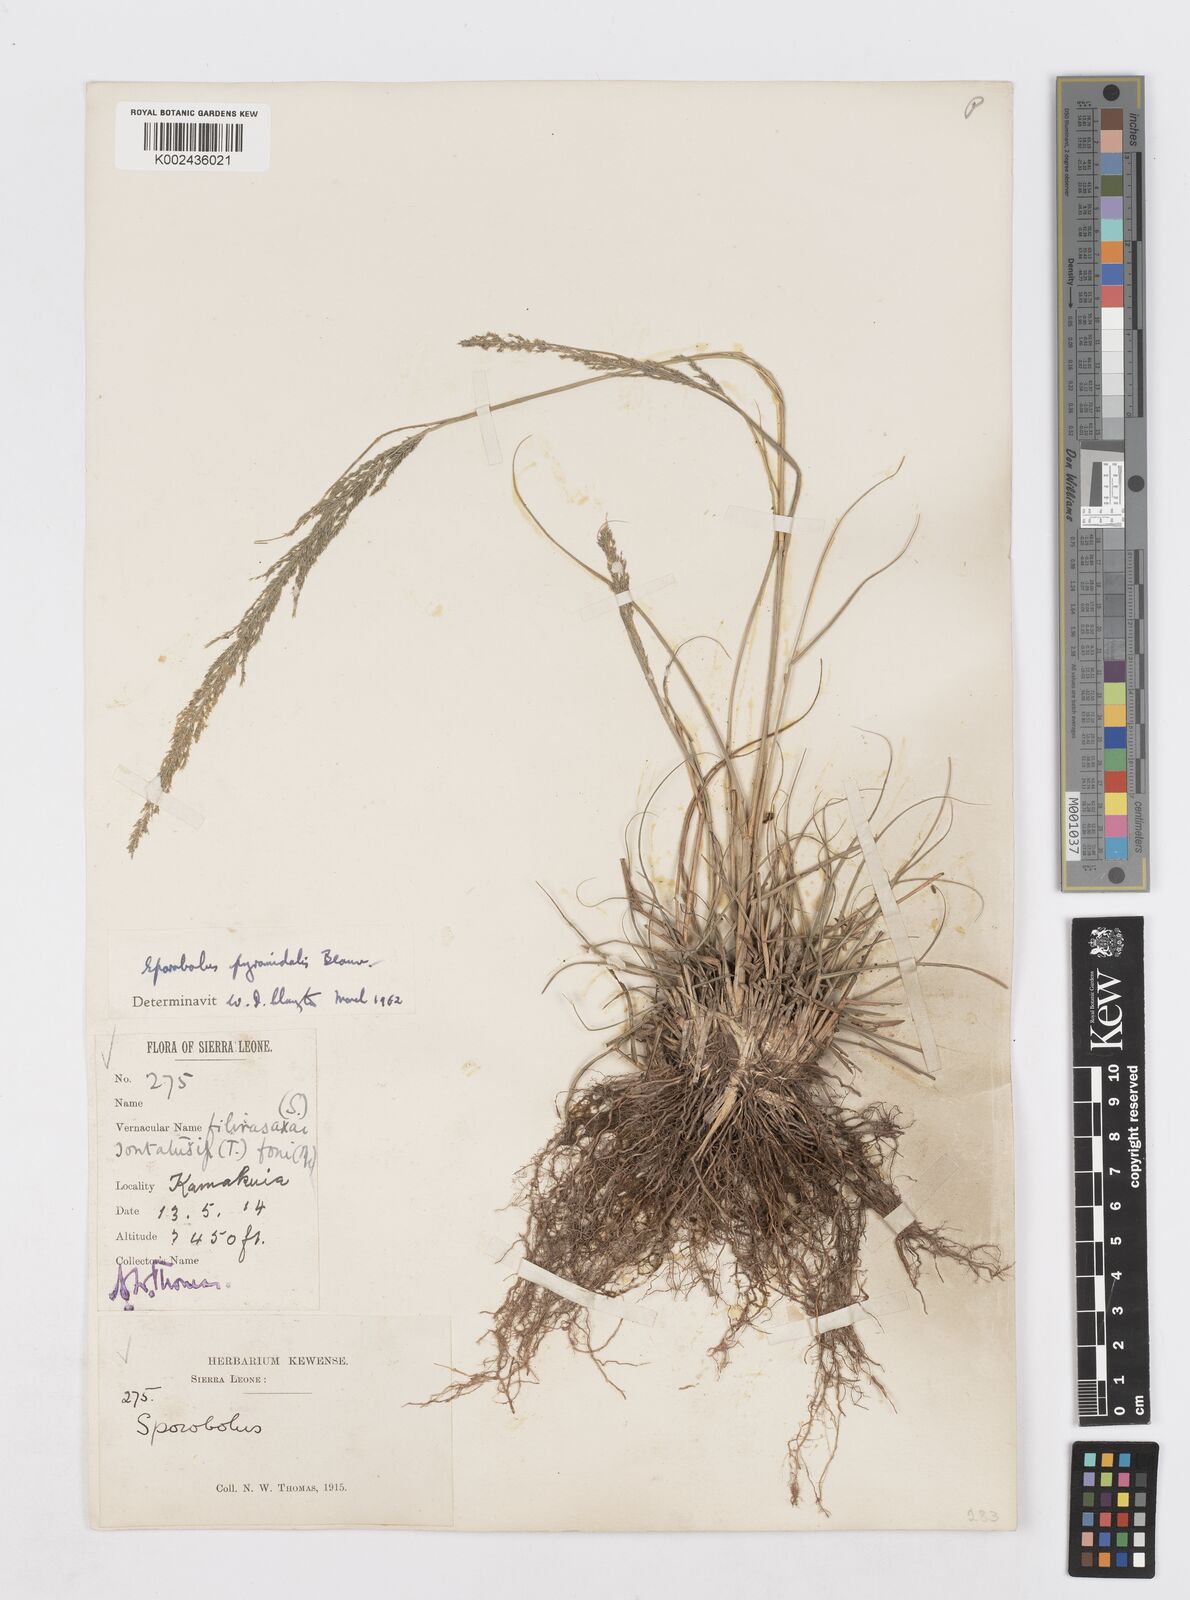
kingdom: Plantae
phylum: Tracheophyta
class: Liliopsida
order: Poales
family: Poaceae
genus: Sporobolus
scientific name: Sporobolus pyramidalis
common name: West indian dropseed
